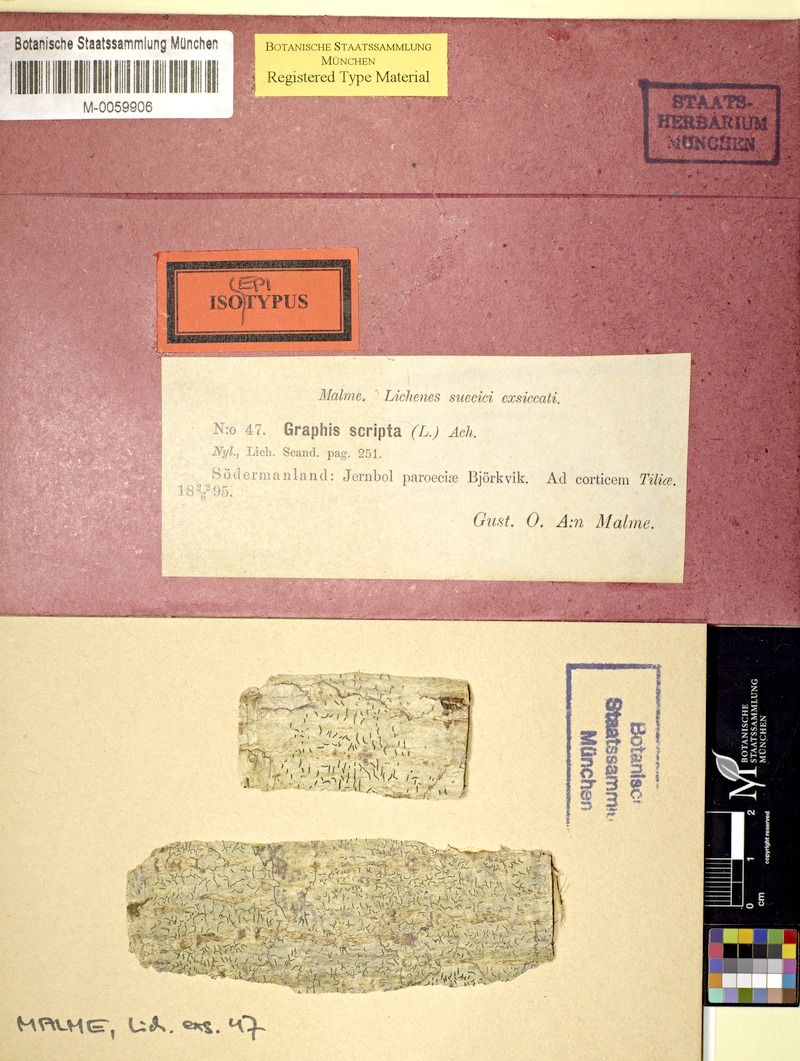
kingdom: Fungi
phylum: Ascomycota
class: Lecanoromycetes
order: Ostropales
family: Graphidaceae
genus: Graphis
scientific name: Graphis scripta
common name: Script lichen
